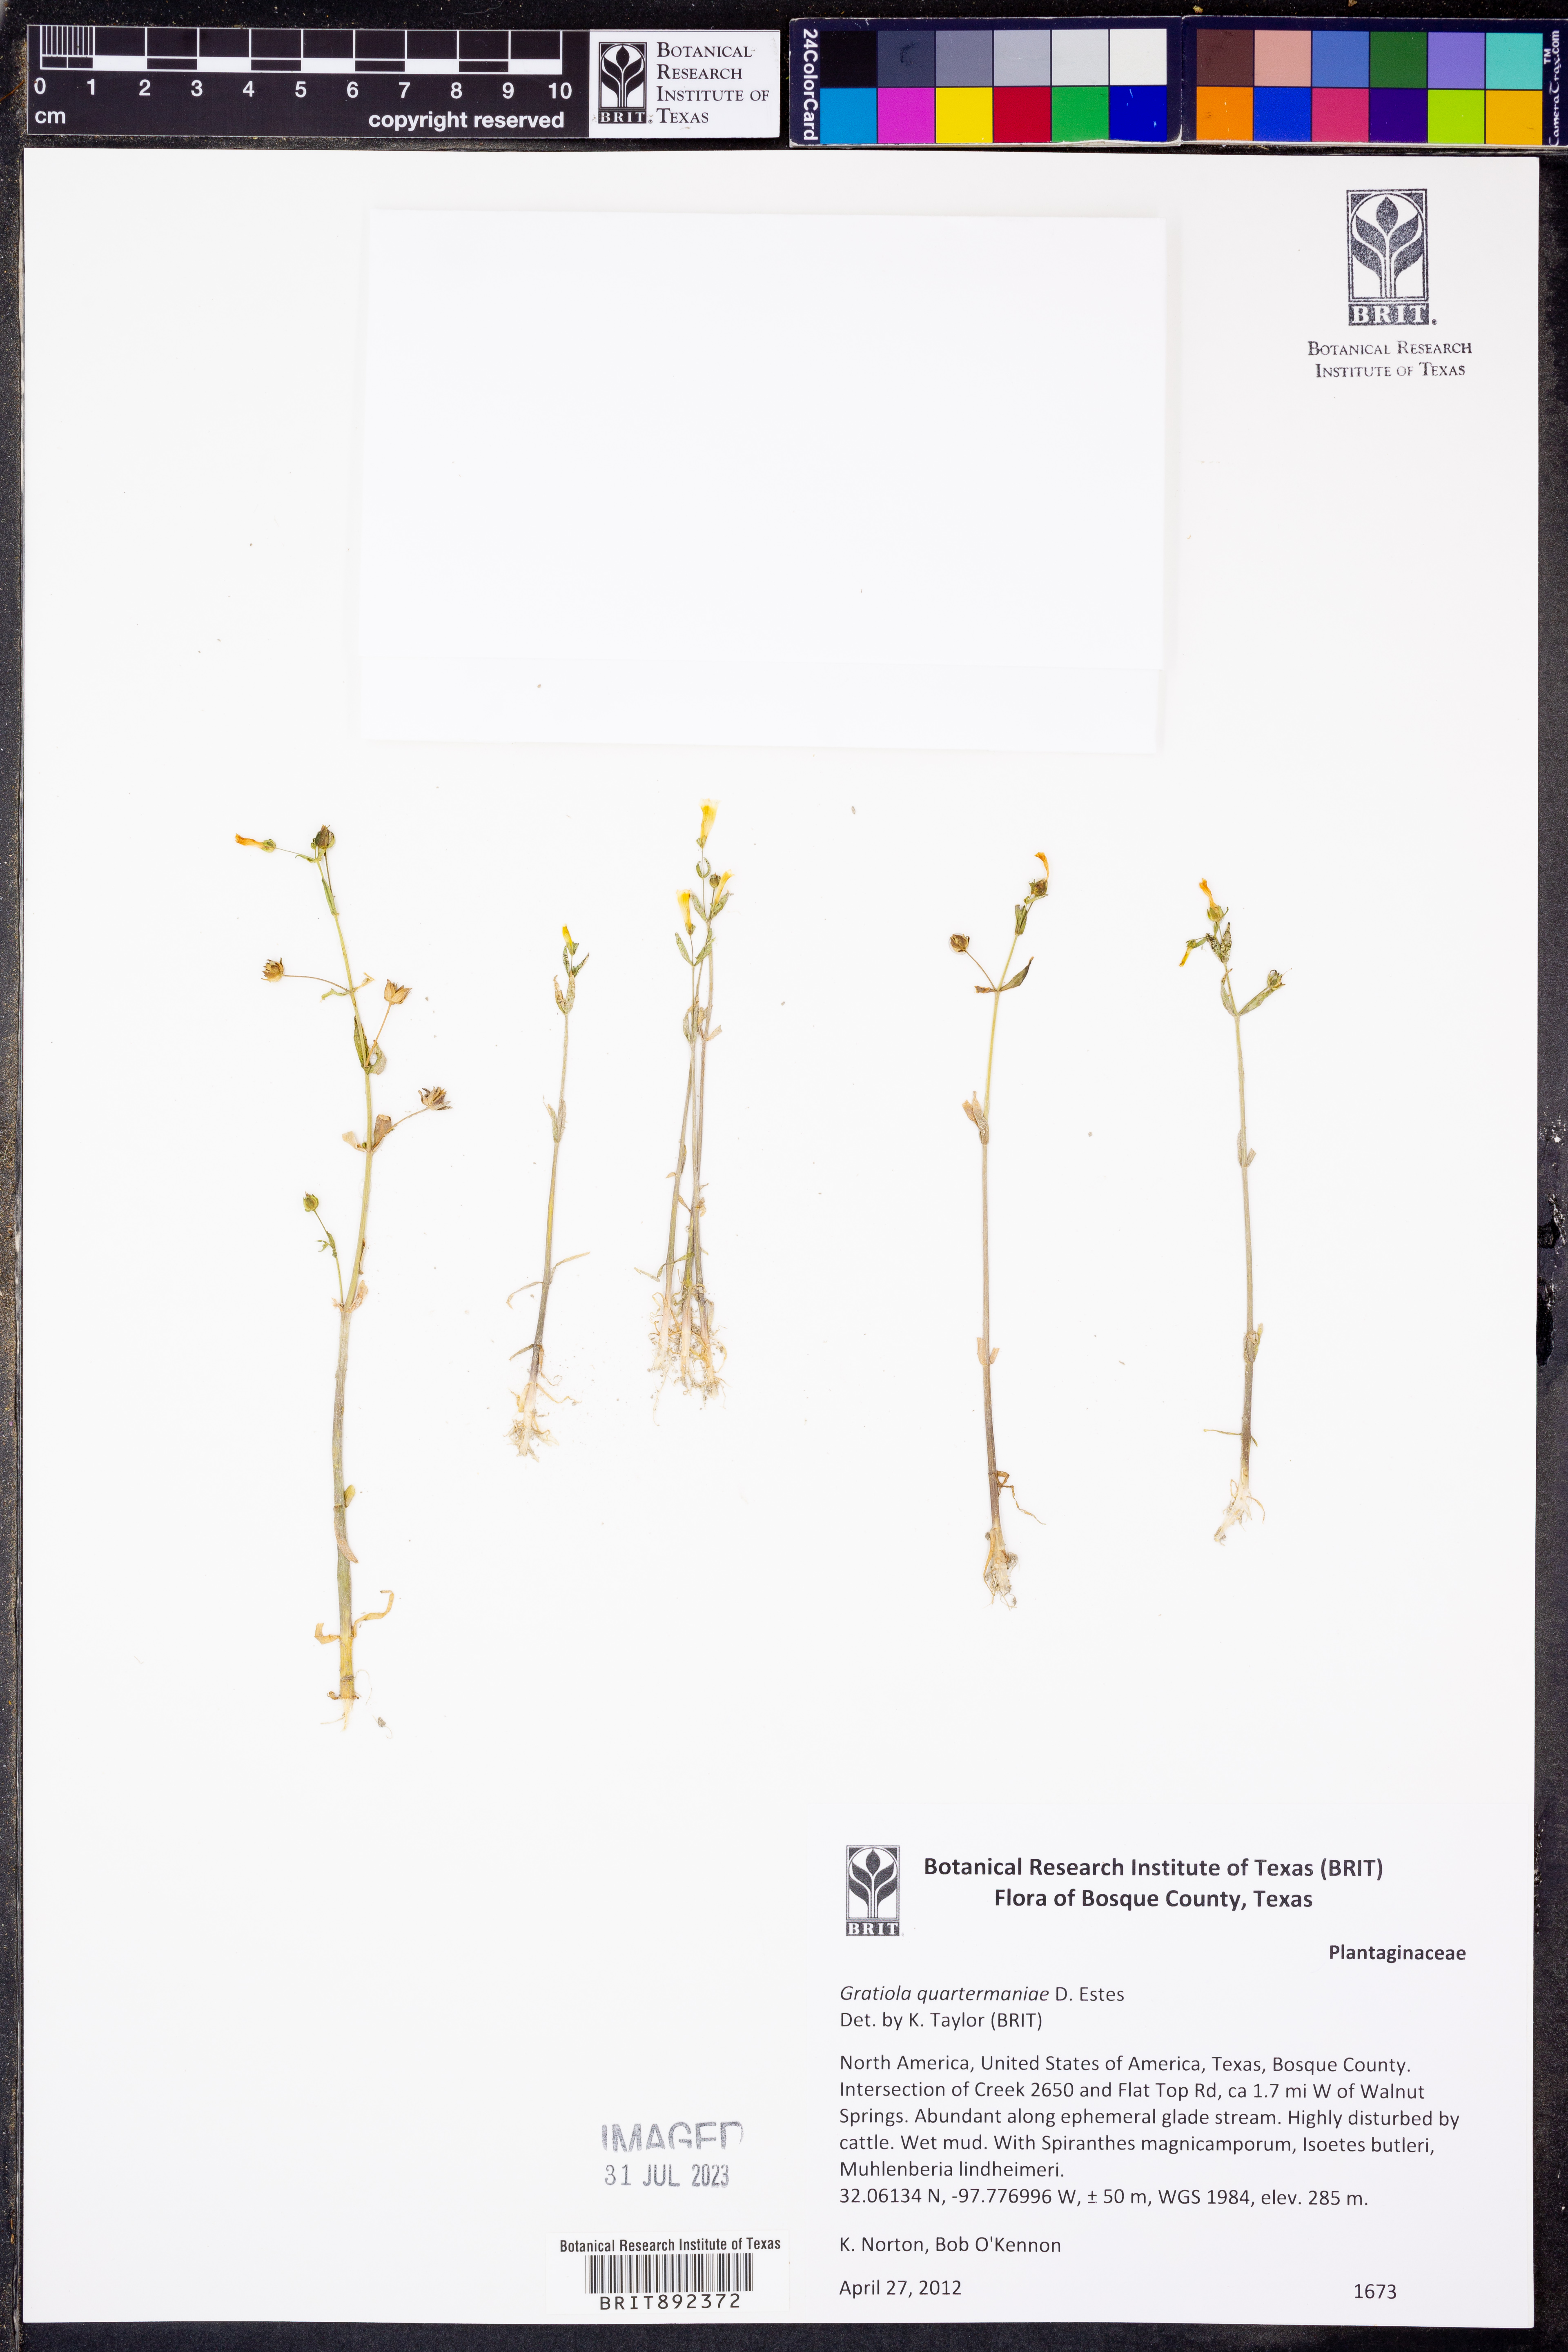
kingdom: Plantae
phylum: Tracheophyta
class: Magnoliopsida
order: Lamiales
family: Plantaginaceae
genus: Gratiola
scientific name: Gratiola quartermaniae
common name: Quarterman's hedge-hyssop
